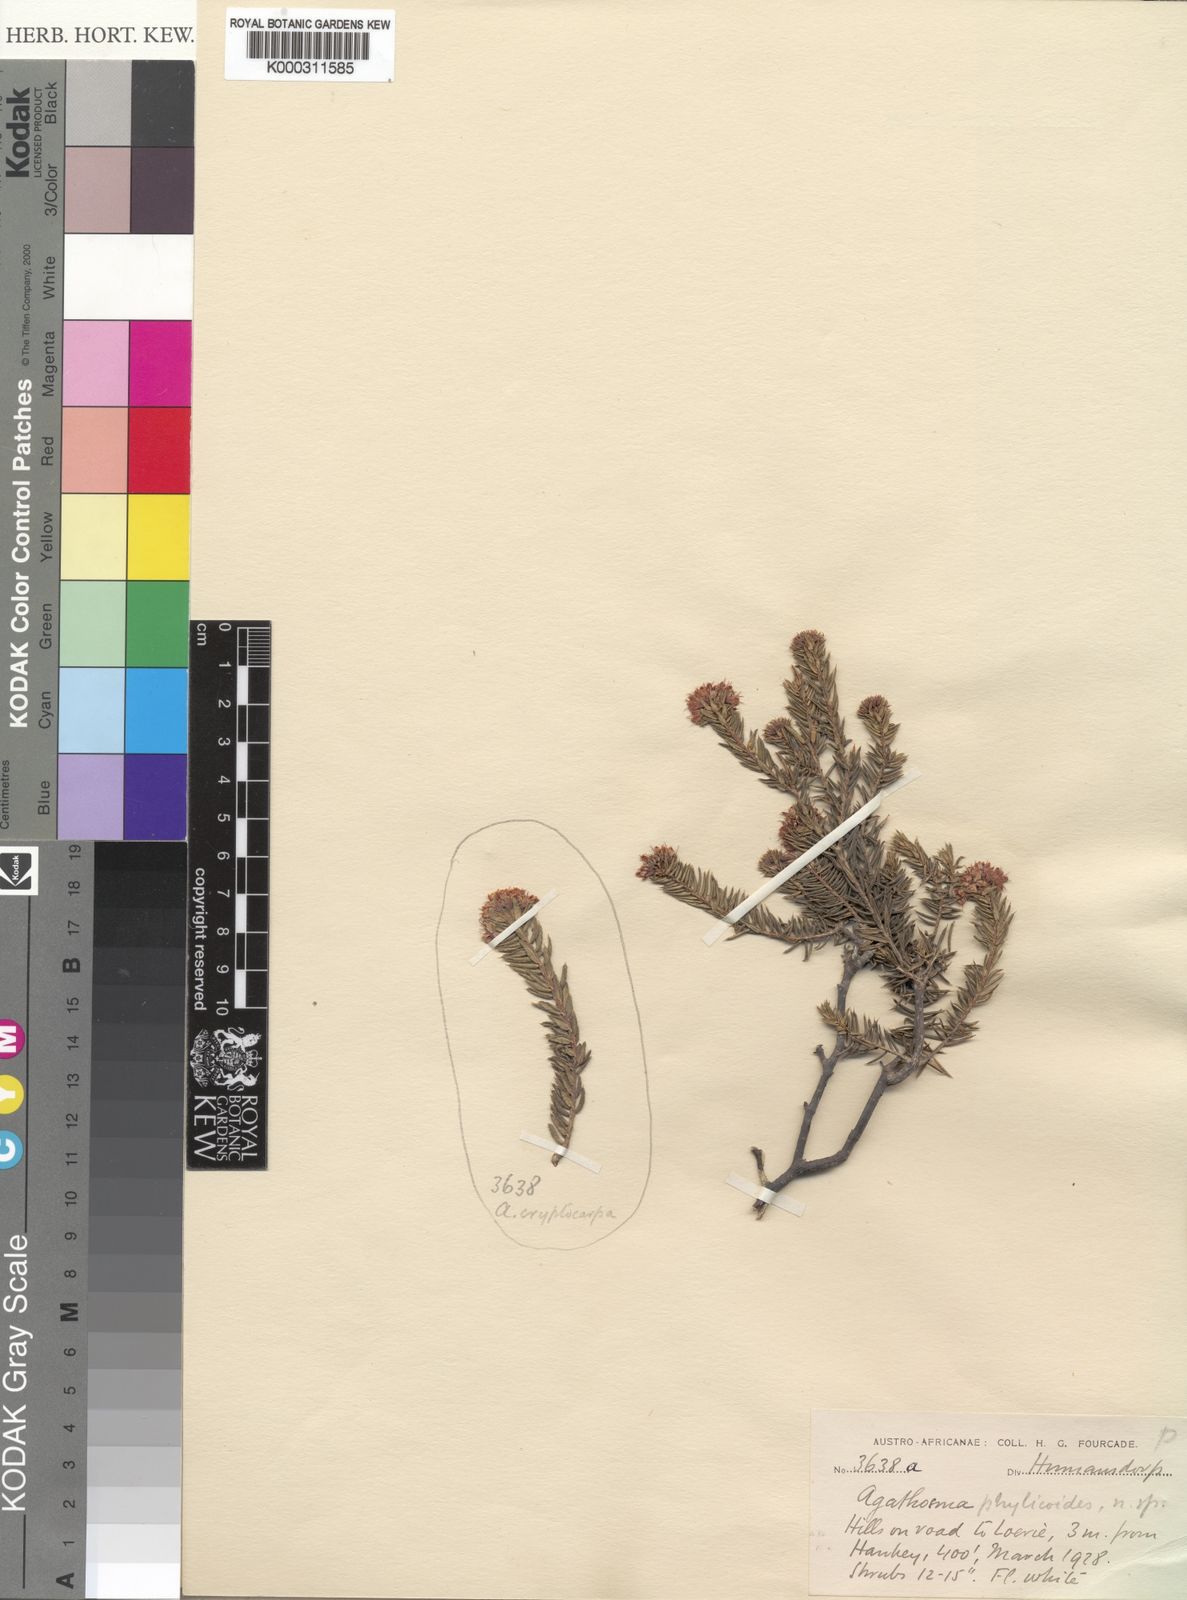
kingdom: Plantae
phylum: Tracheophyta
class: Magnoliopsida
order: Sapindales
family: Rutaceae
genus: Agathosma
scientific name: Agathosma acutissima
